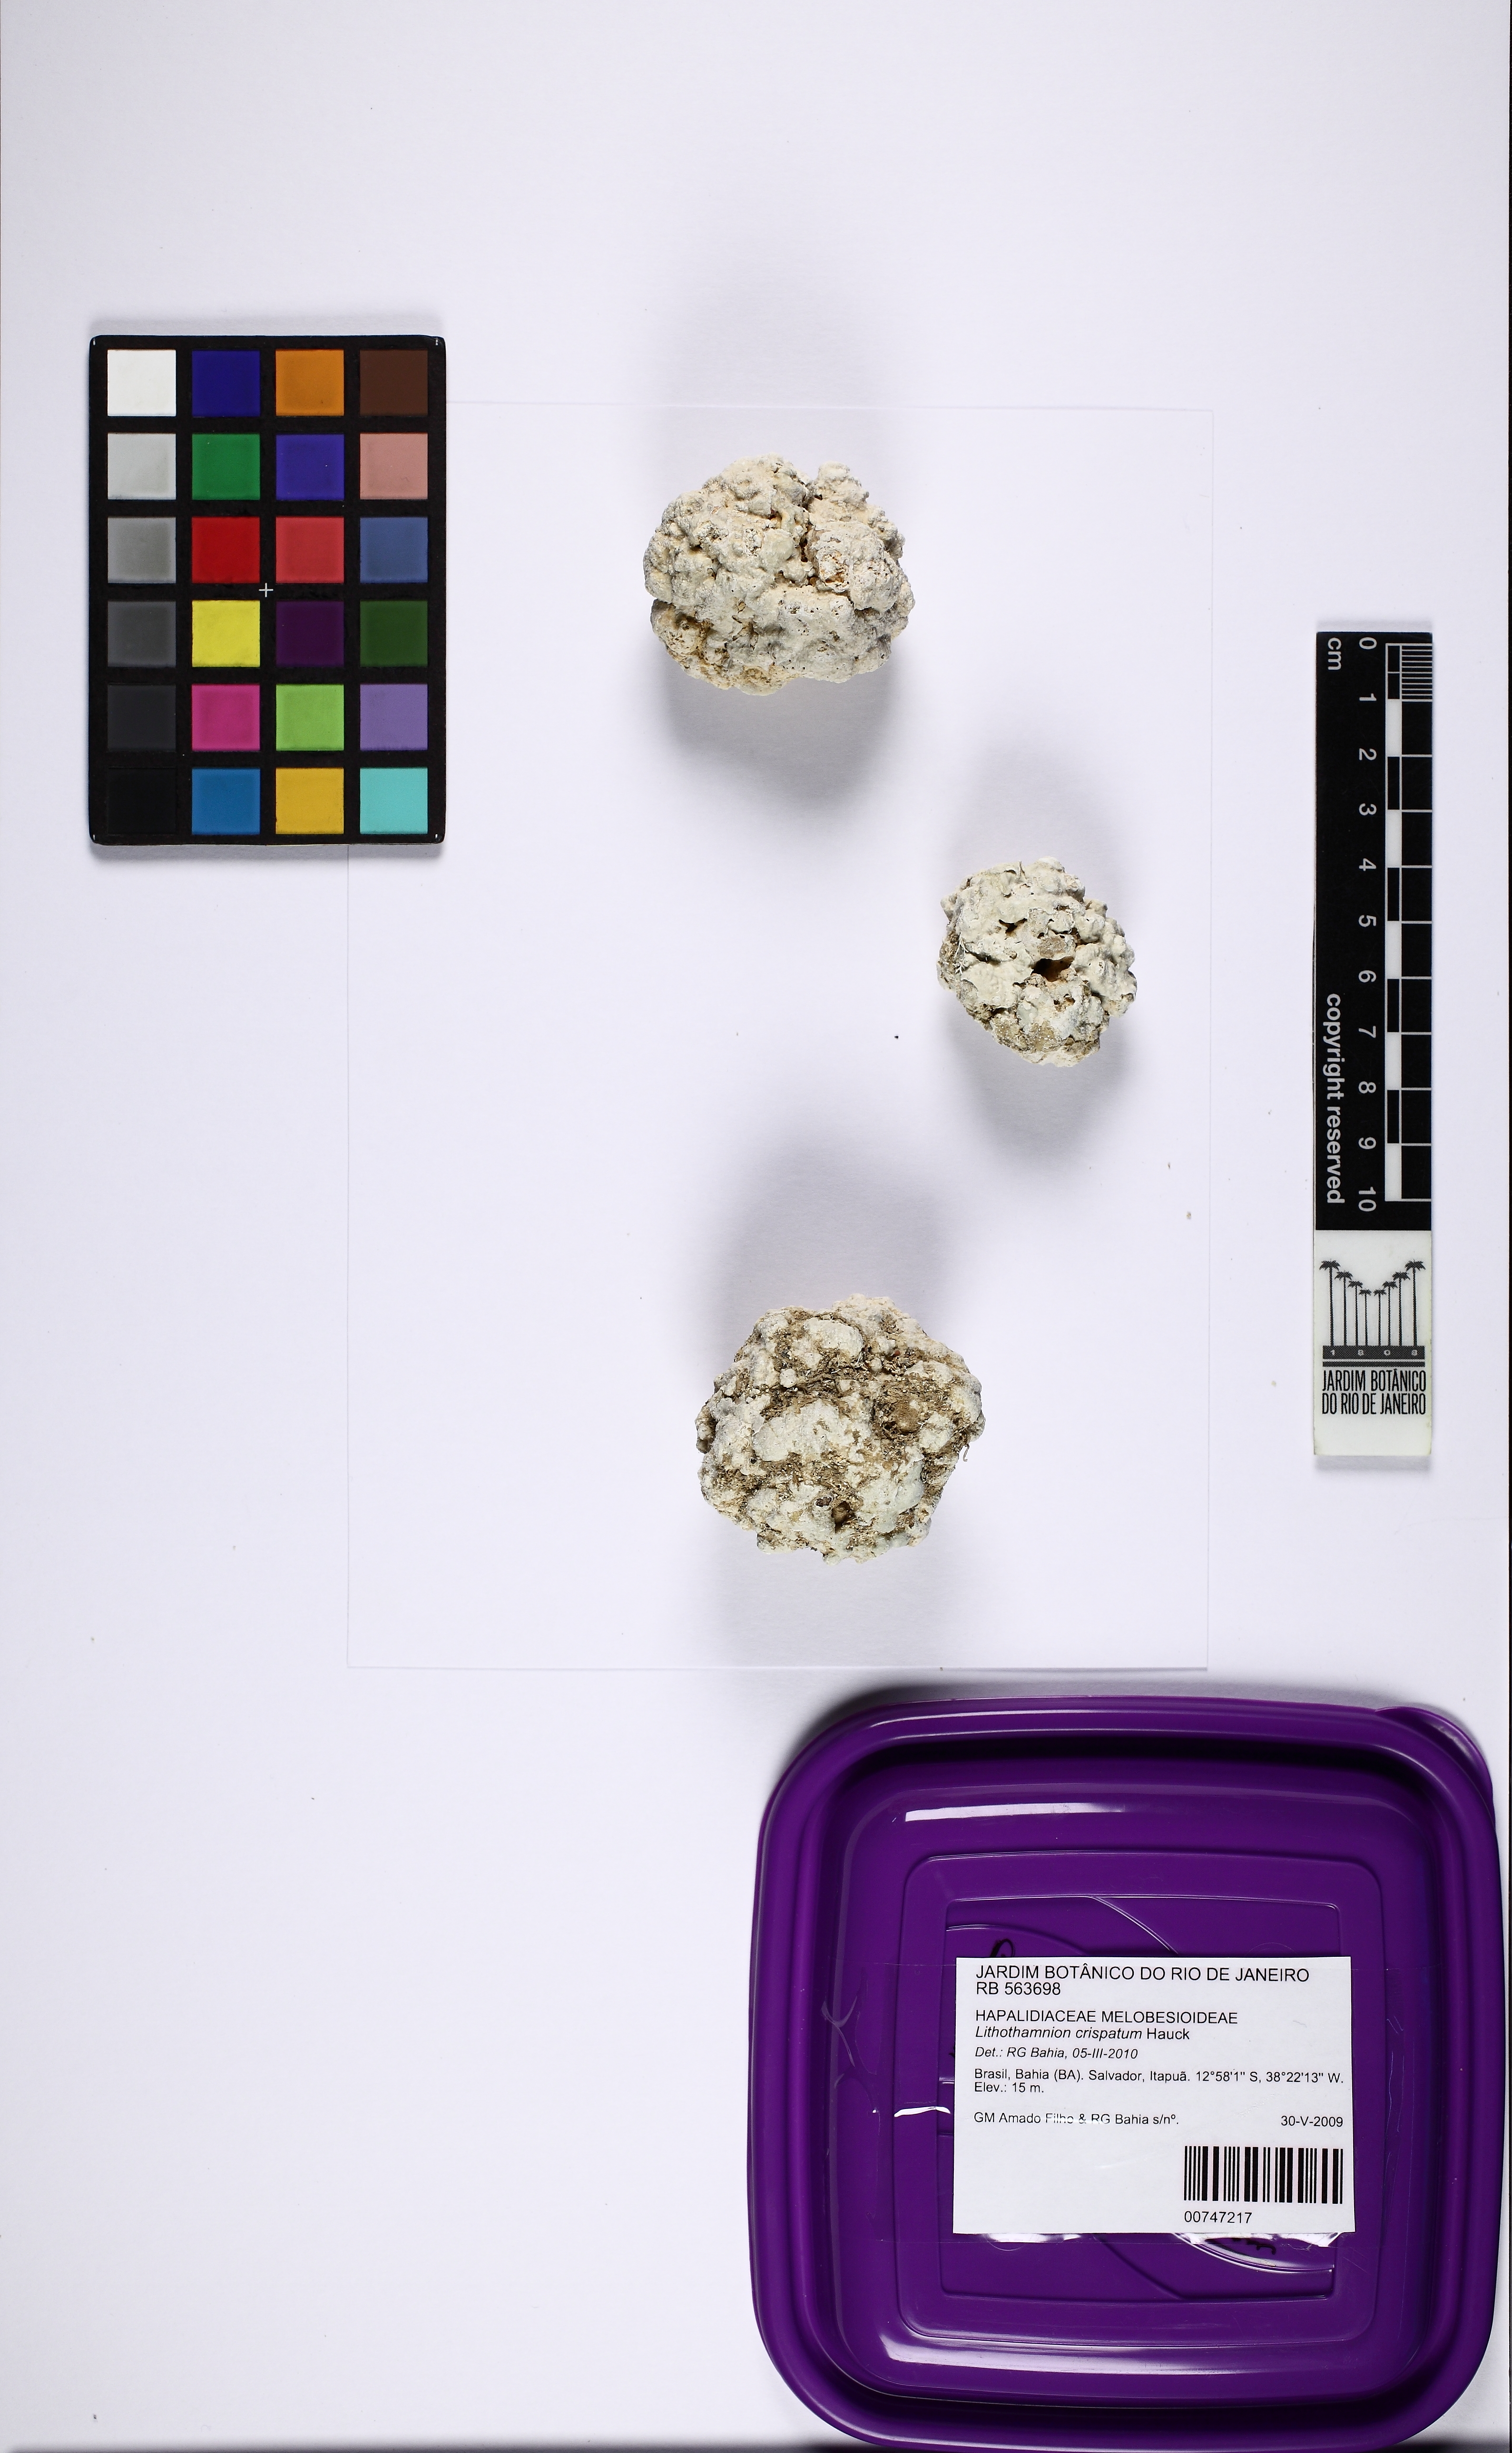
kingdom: Plantae
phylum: Rhodophyta
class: Florideophyceae
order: Corallinales
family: Hapalidiaceae
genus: Lithothamnion
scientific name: Lithothamnion crispatum
